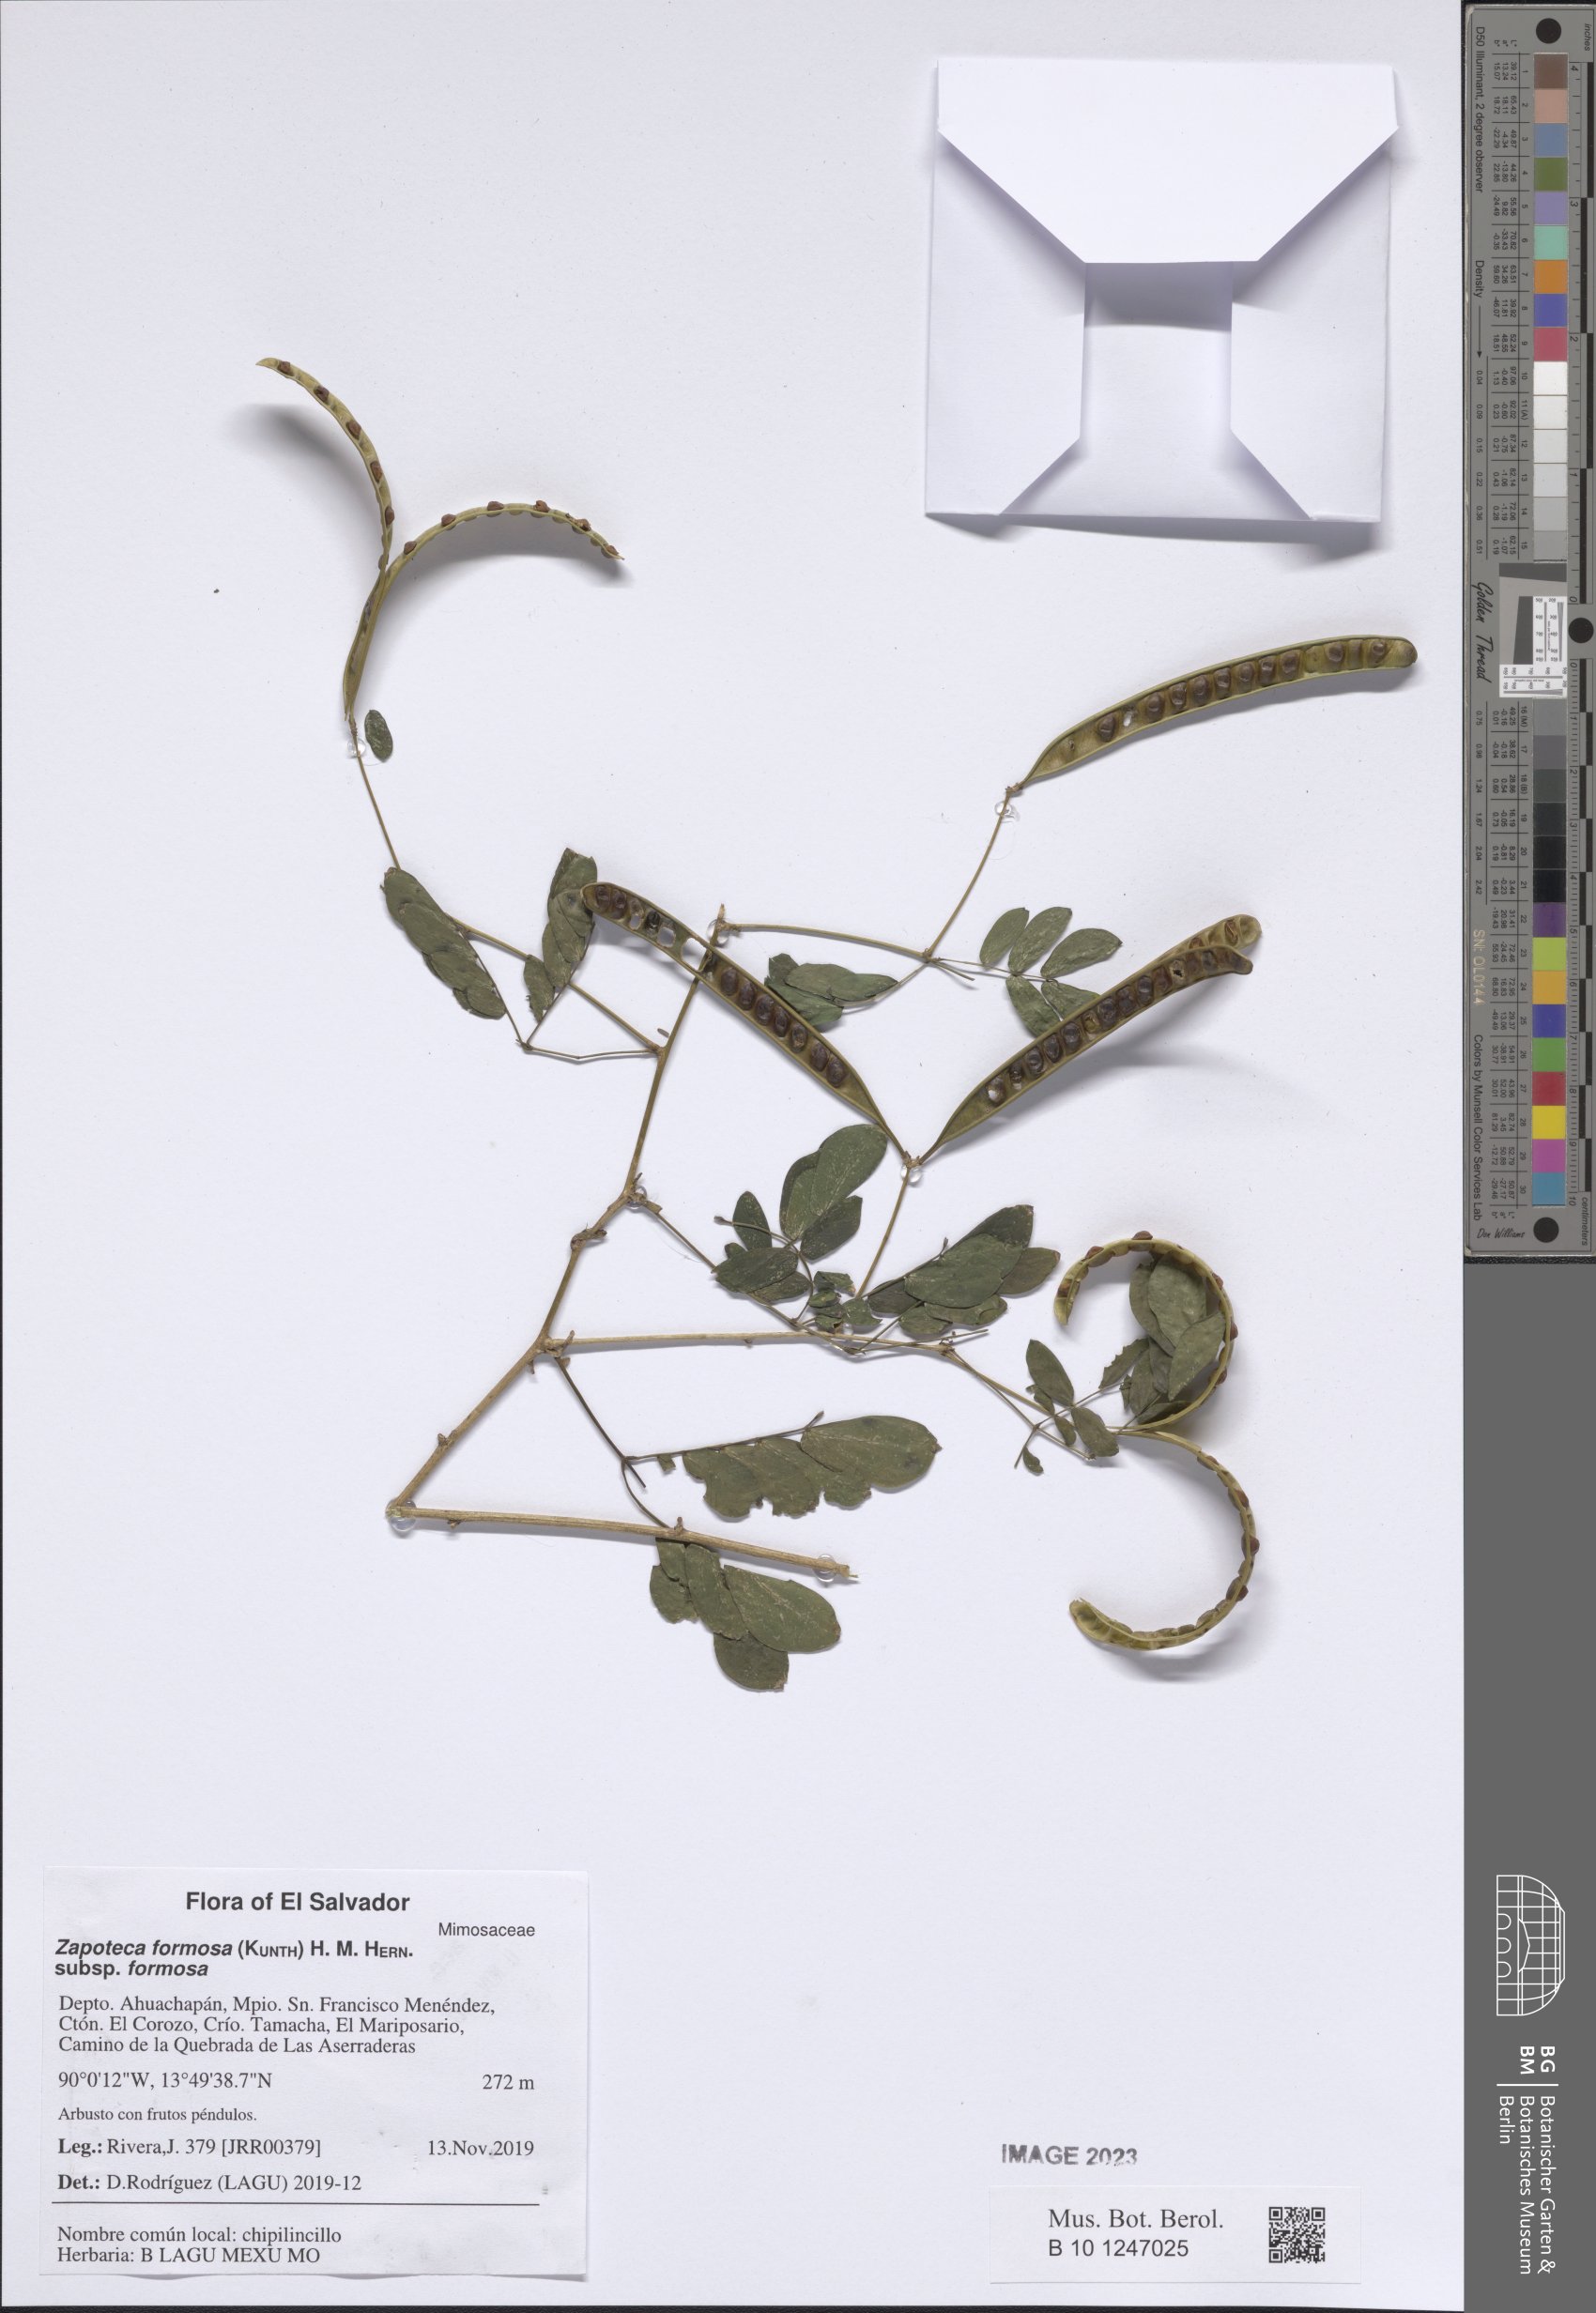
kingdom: Plantae
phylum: Tracheophyta
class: Magnoliopsida
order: Fabales
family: Fabaceae
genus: Zapoteca
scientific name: Zapoteca formosa
